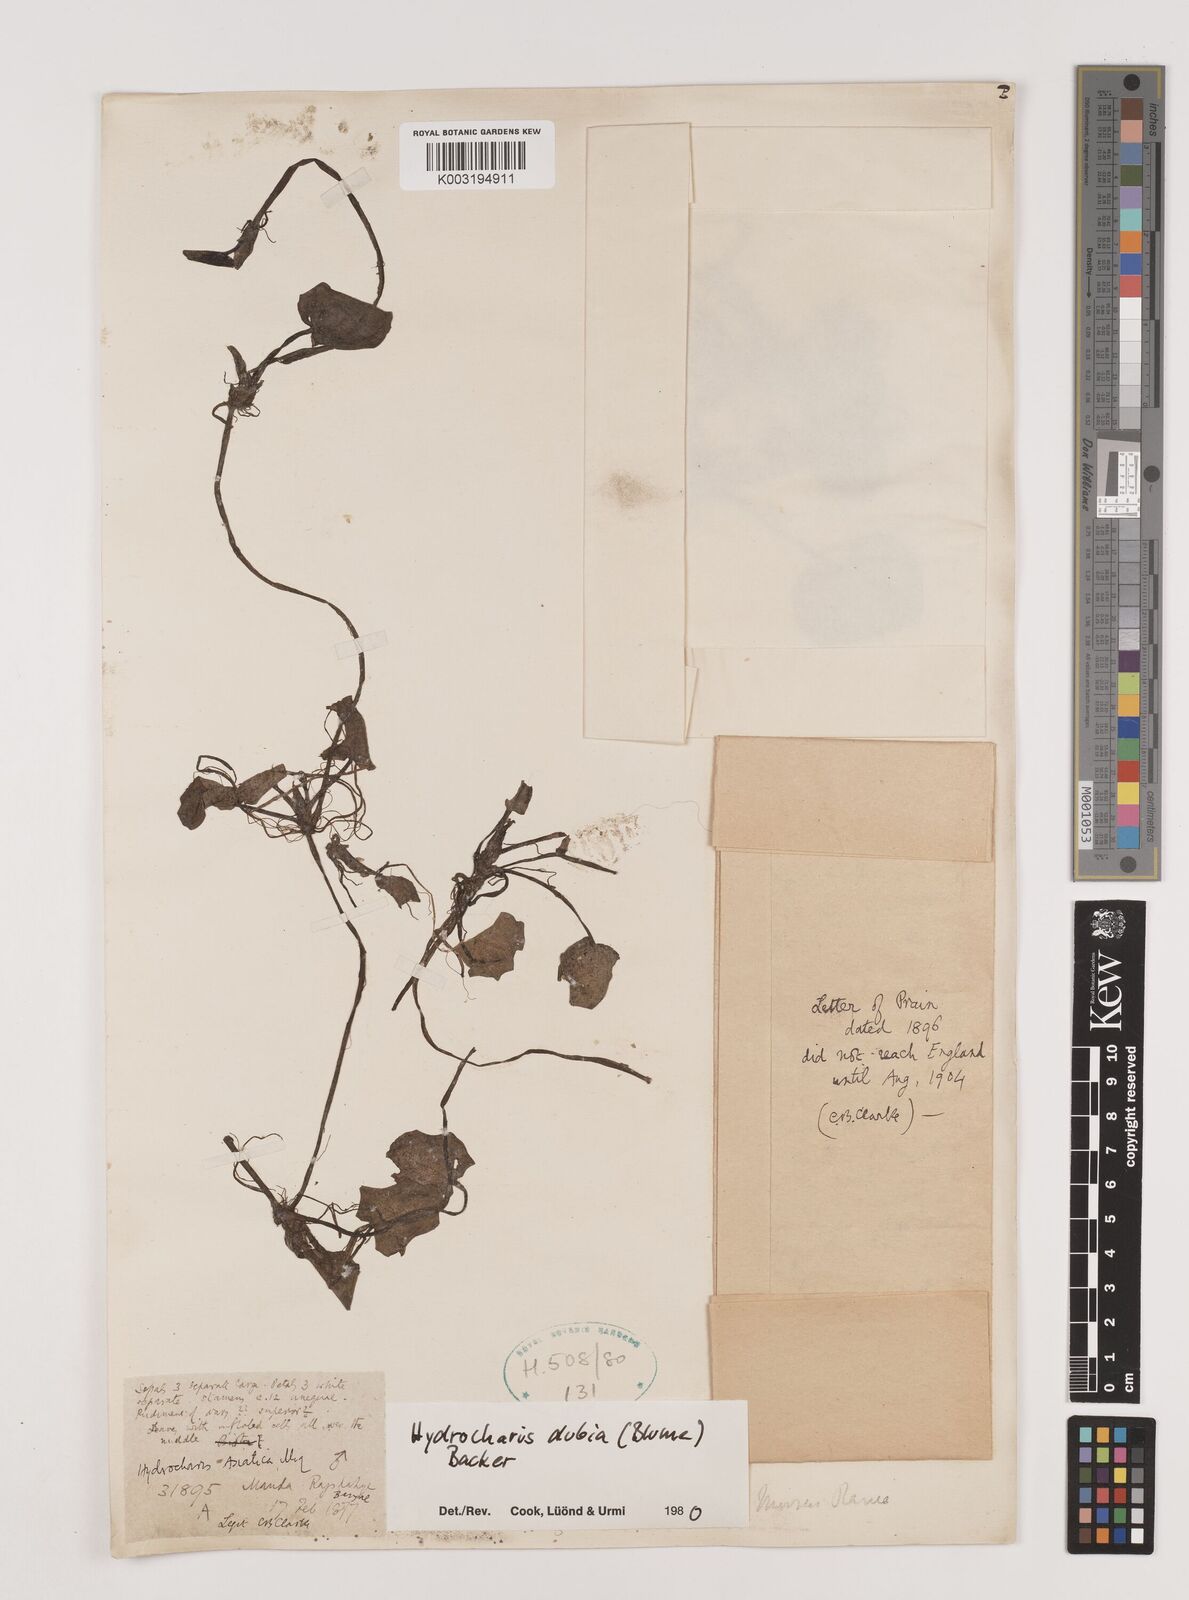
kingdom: Plantae
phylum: Tracheophyta
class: Liliopsida
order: Alismatales
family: Hydrocharitaceae
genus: Hydrocharis
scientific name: Hydrocharis dubia
